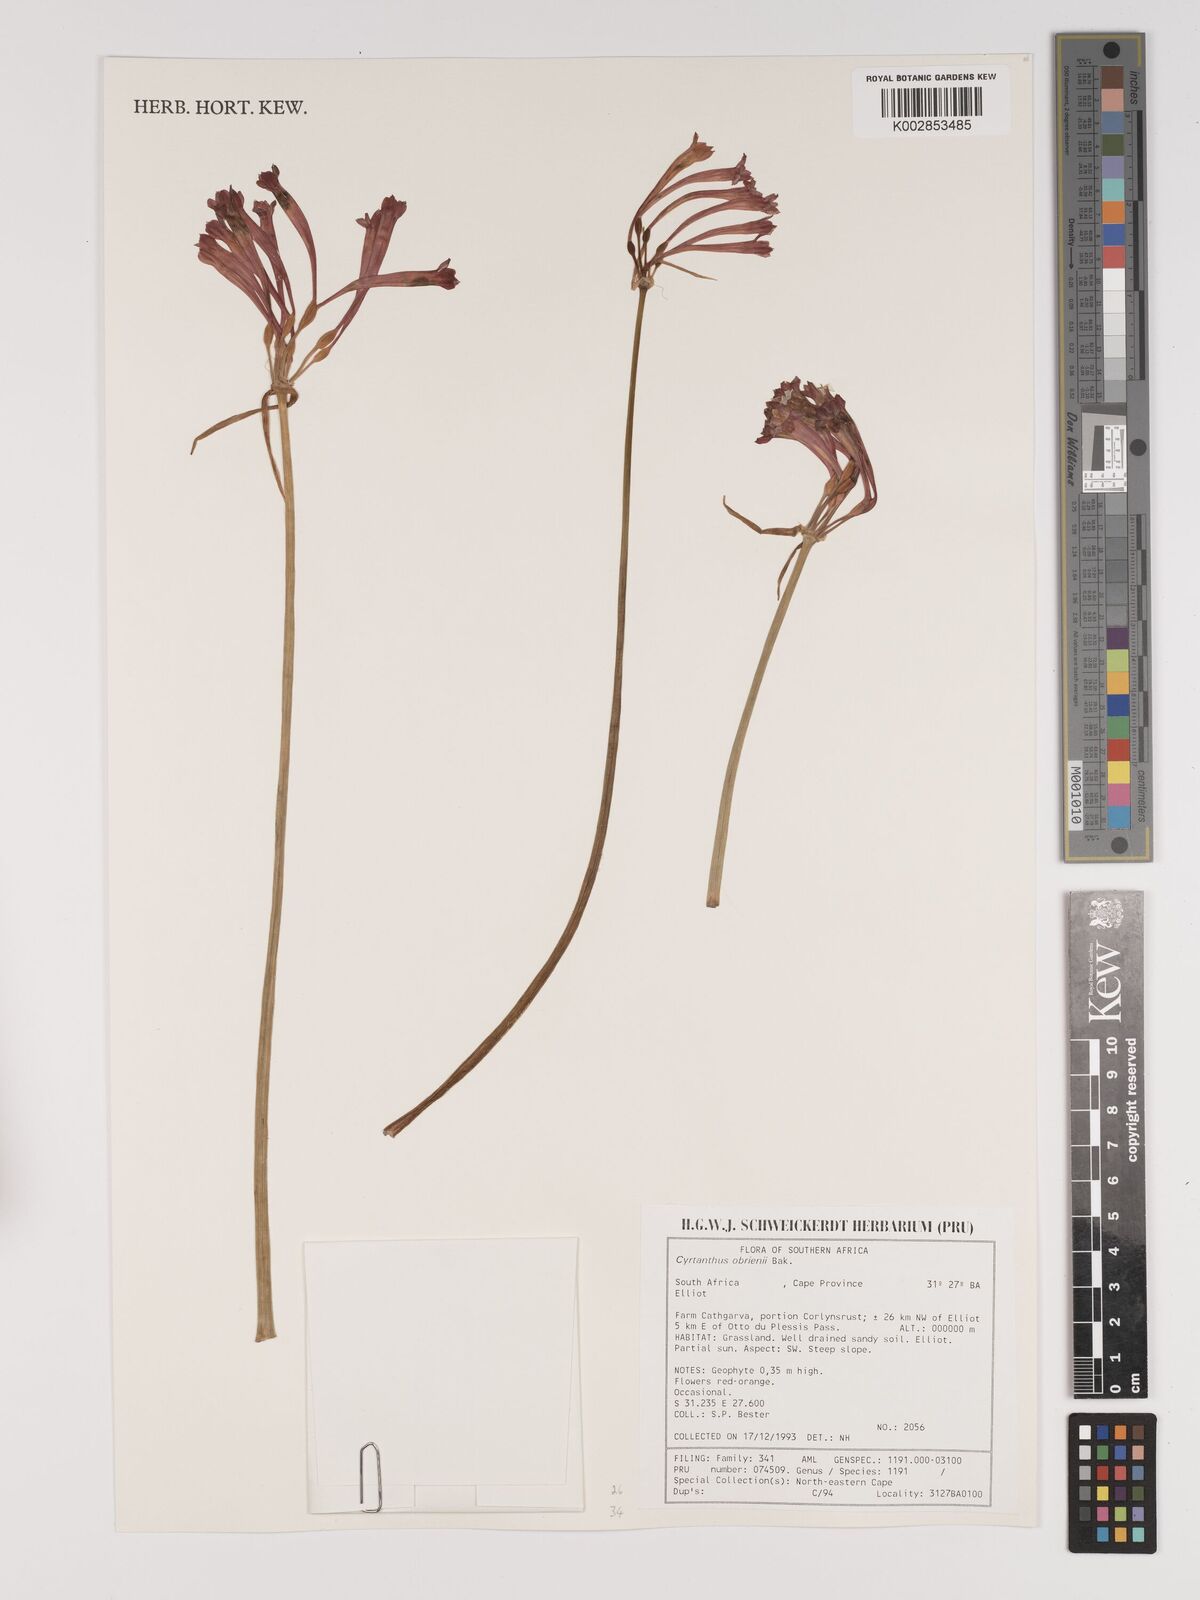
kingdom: Plantae
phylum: Tracheophyta
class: Liliopsida
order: Asparagales
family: Amaryllidaceae
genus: Cyrtanthus
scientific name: Cyrtanthus obrienii
